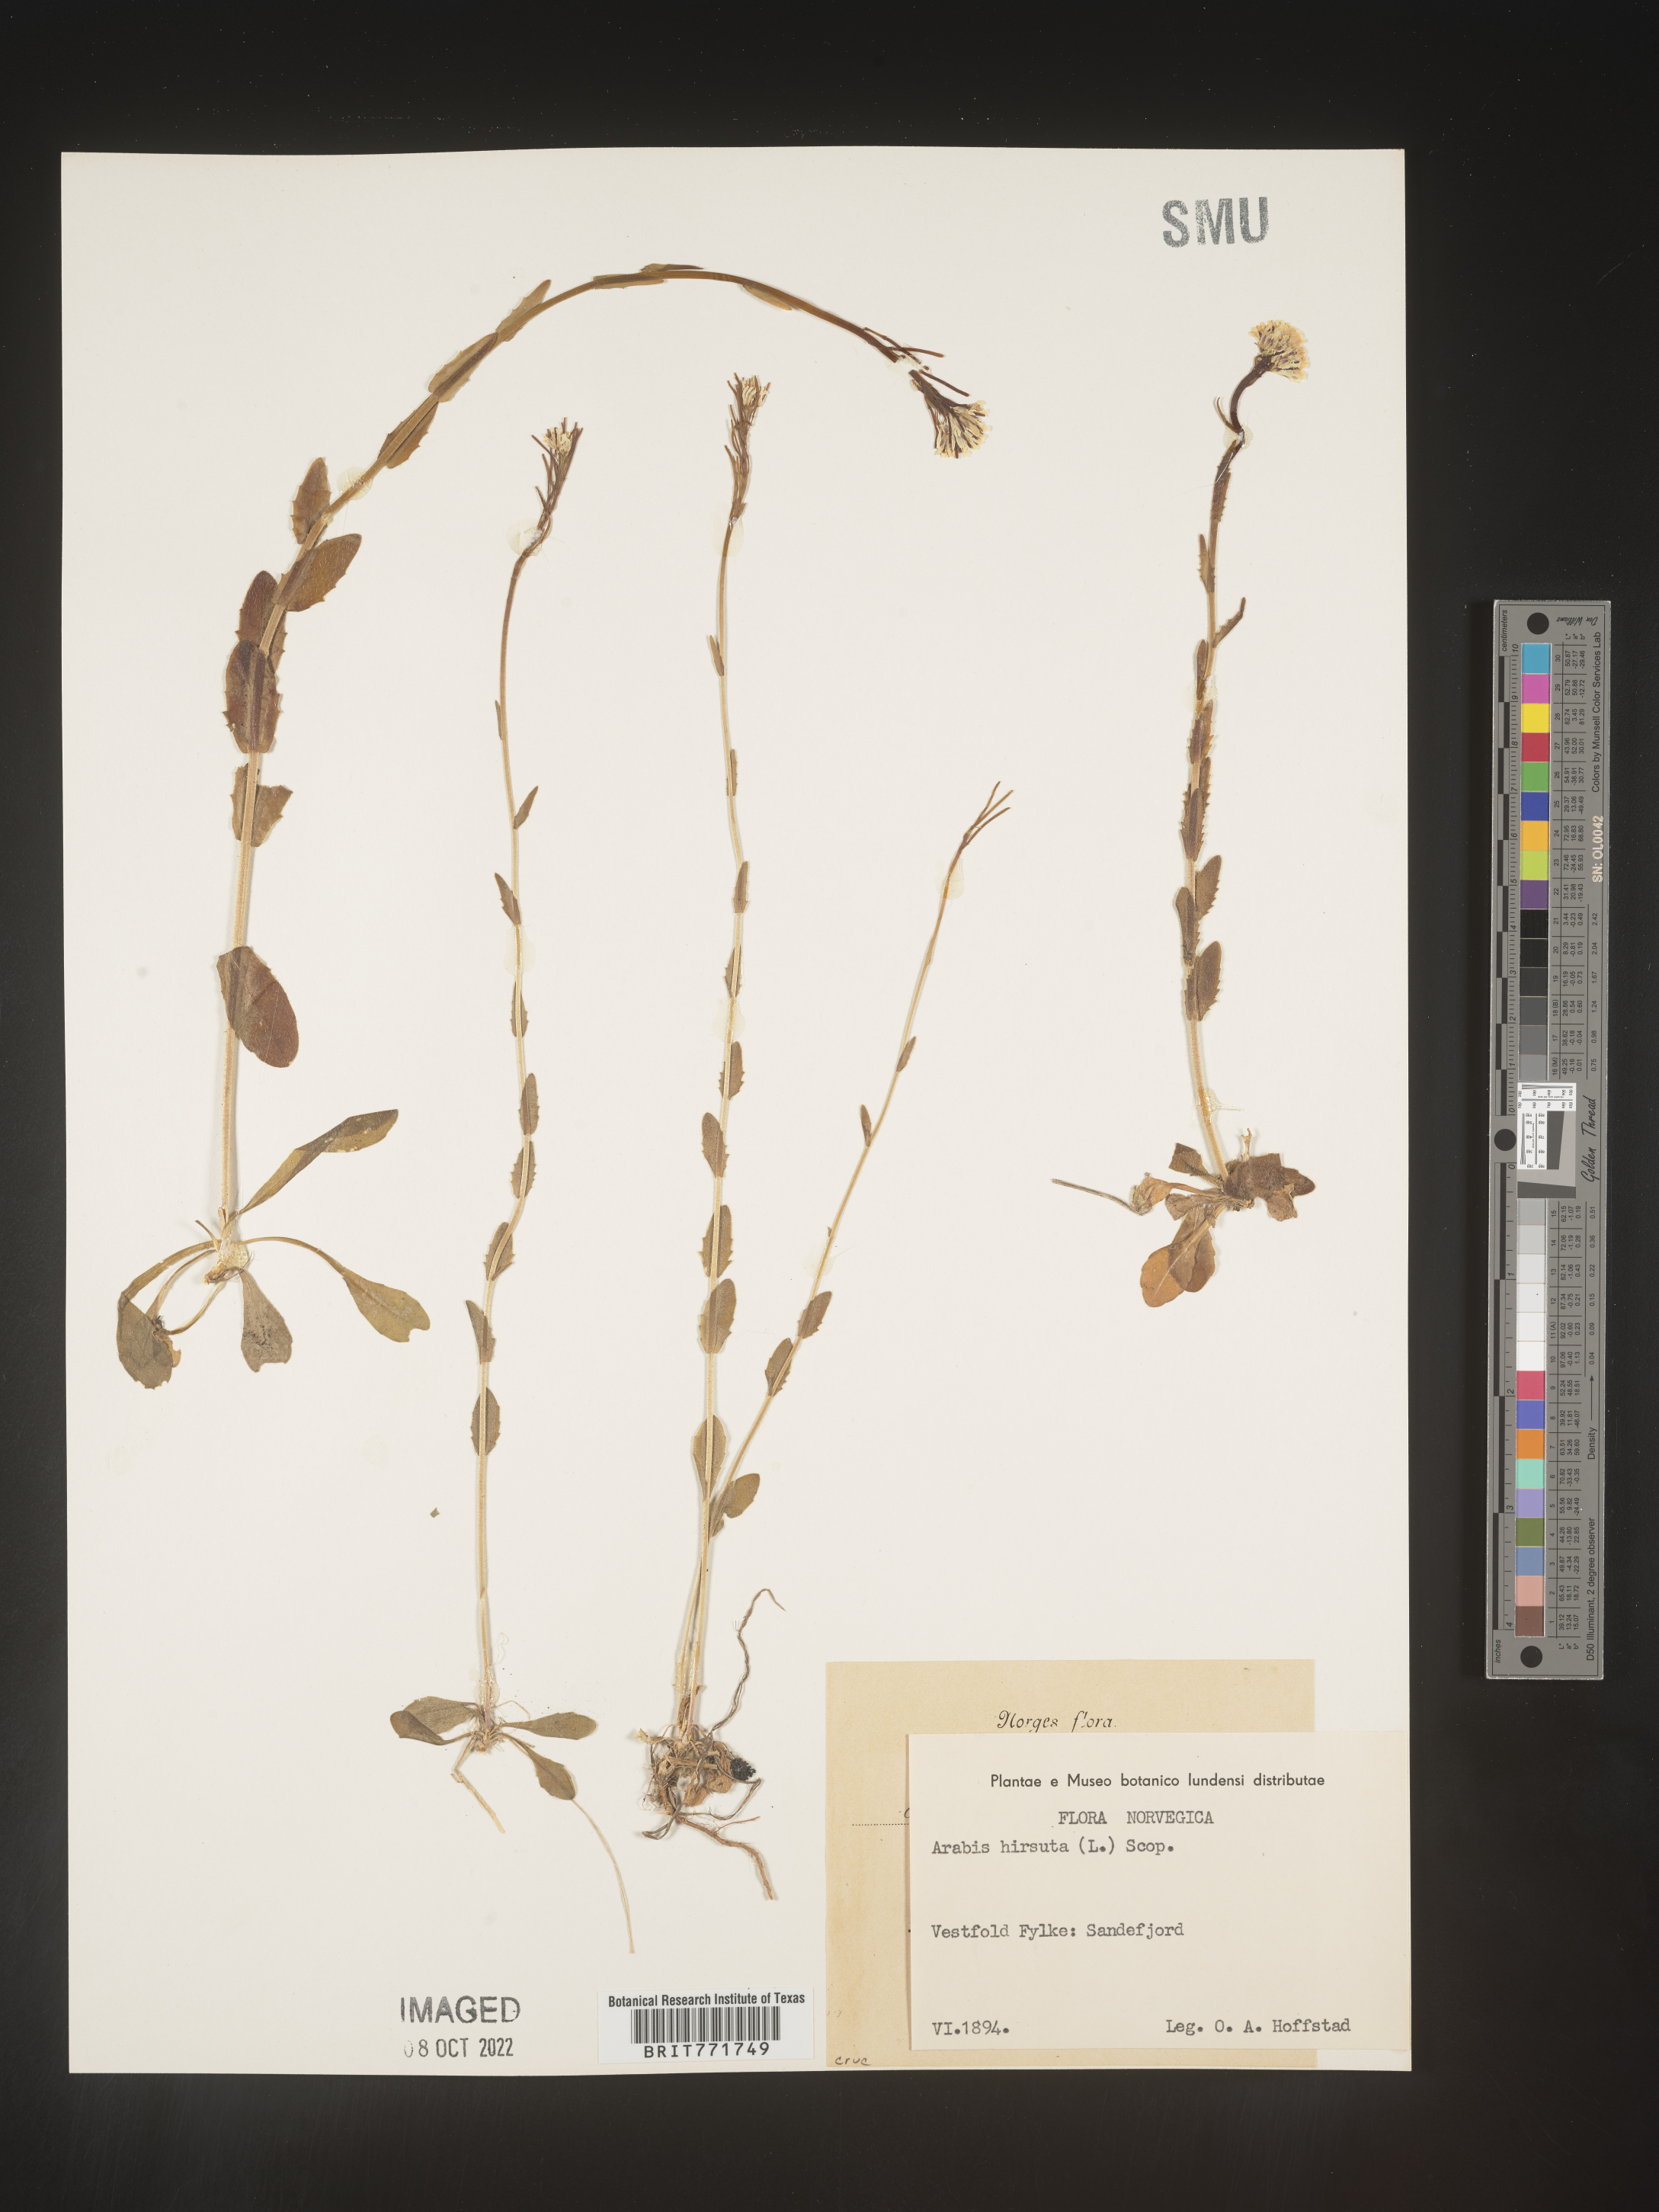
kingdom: Plantae
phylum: Tracheophyta
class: Magnoliopsida
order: Brassicales
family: Brassicaceae
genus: Arabis
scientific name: Arabis
